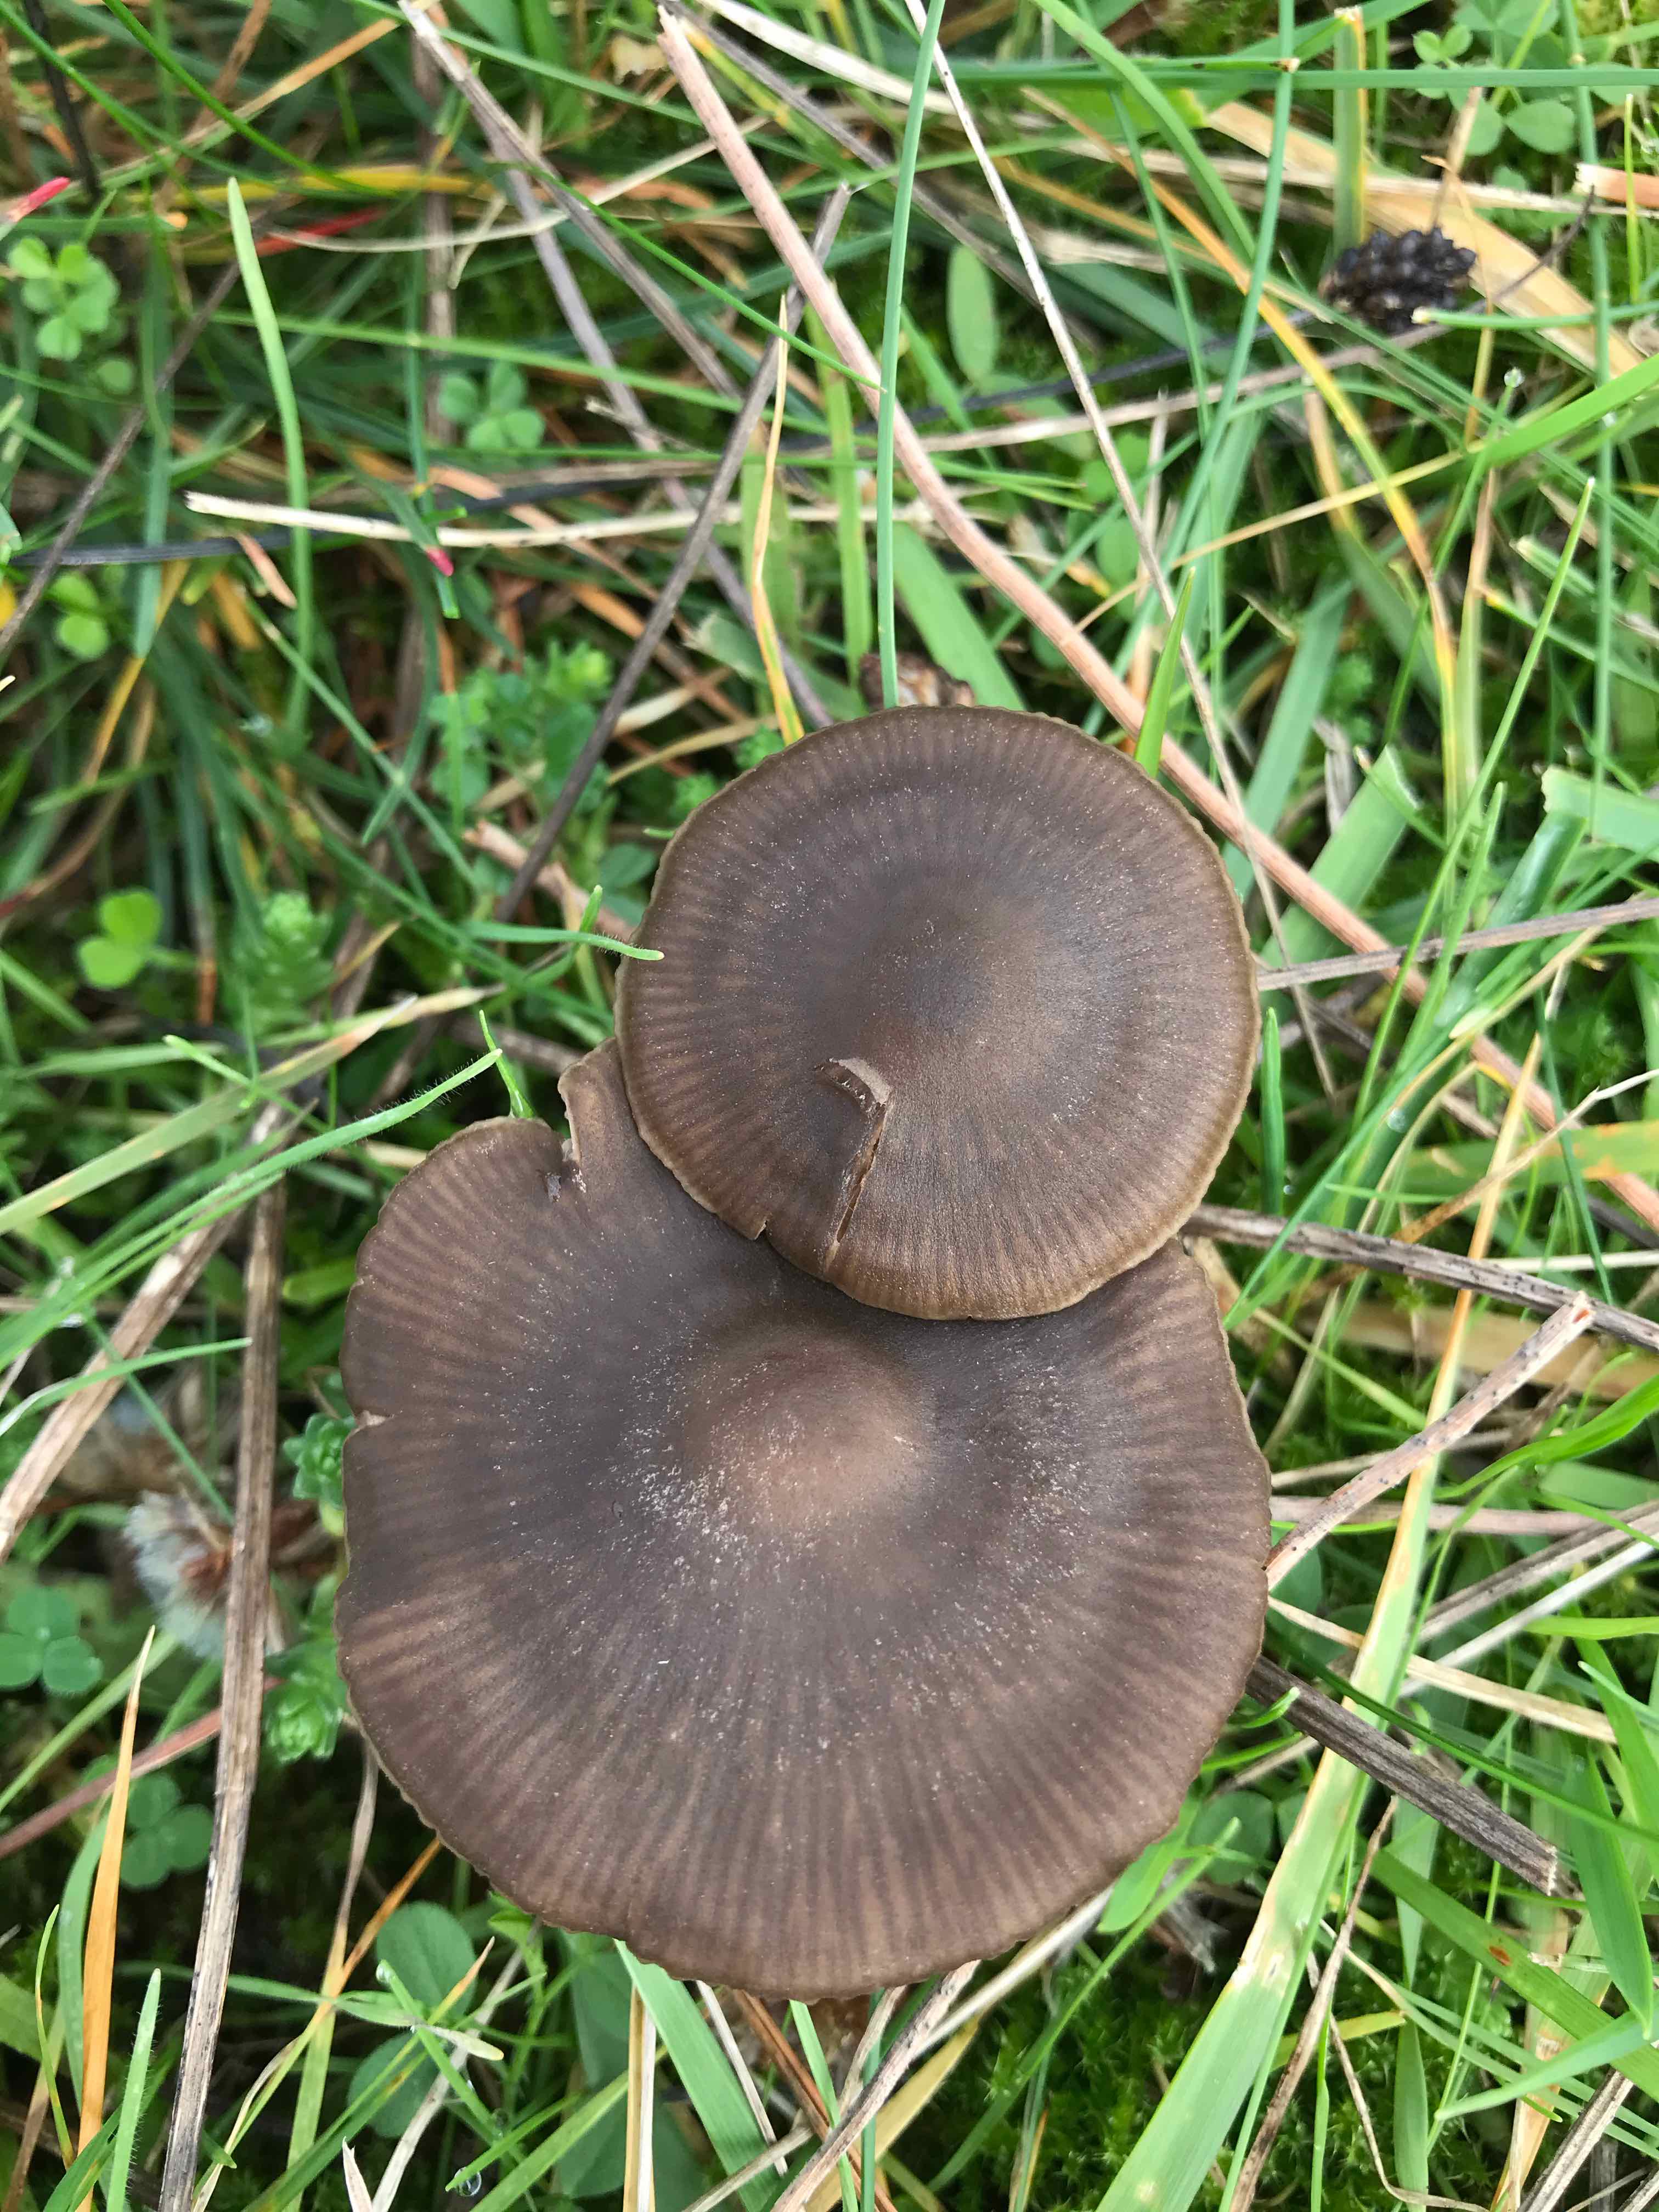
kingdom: Fungi
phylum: Basidiomycota
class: Agaricomycetes
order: Agaricales
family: Entolomataceae
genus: Entoloma
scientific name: Entoloma sericeum
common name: silkeglinsende rødblad
